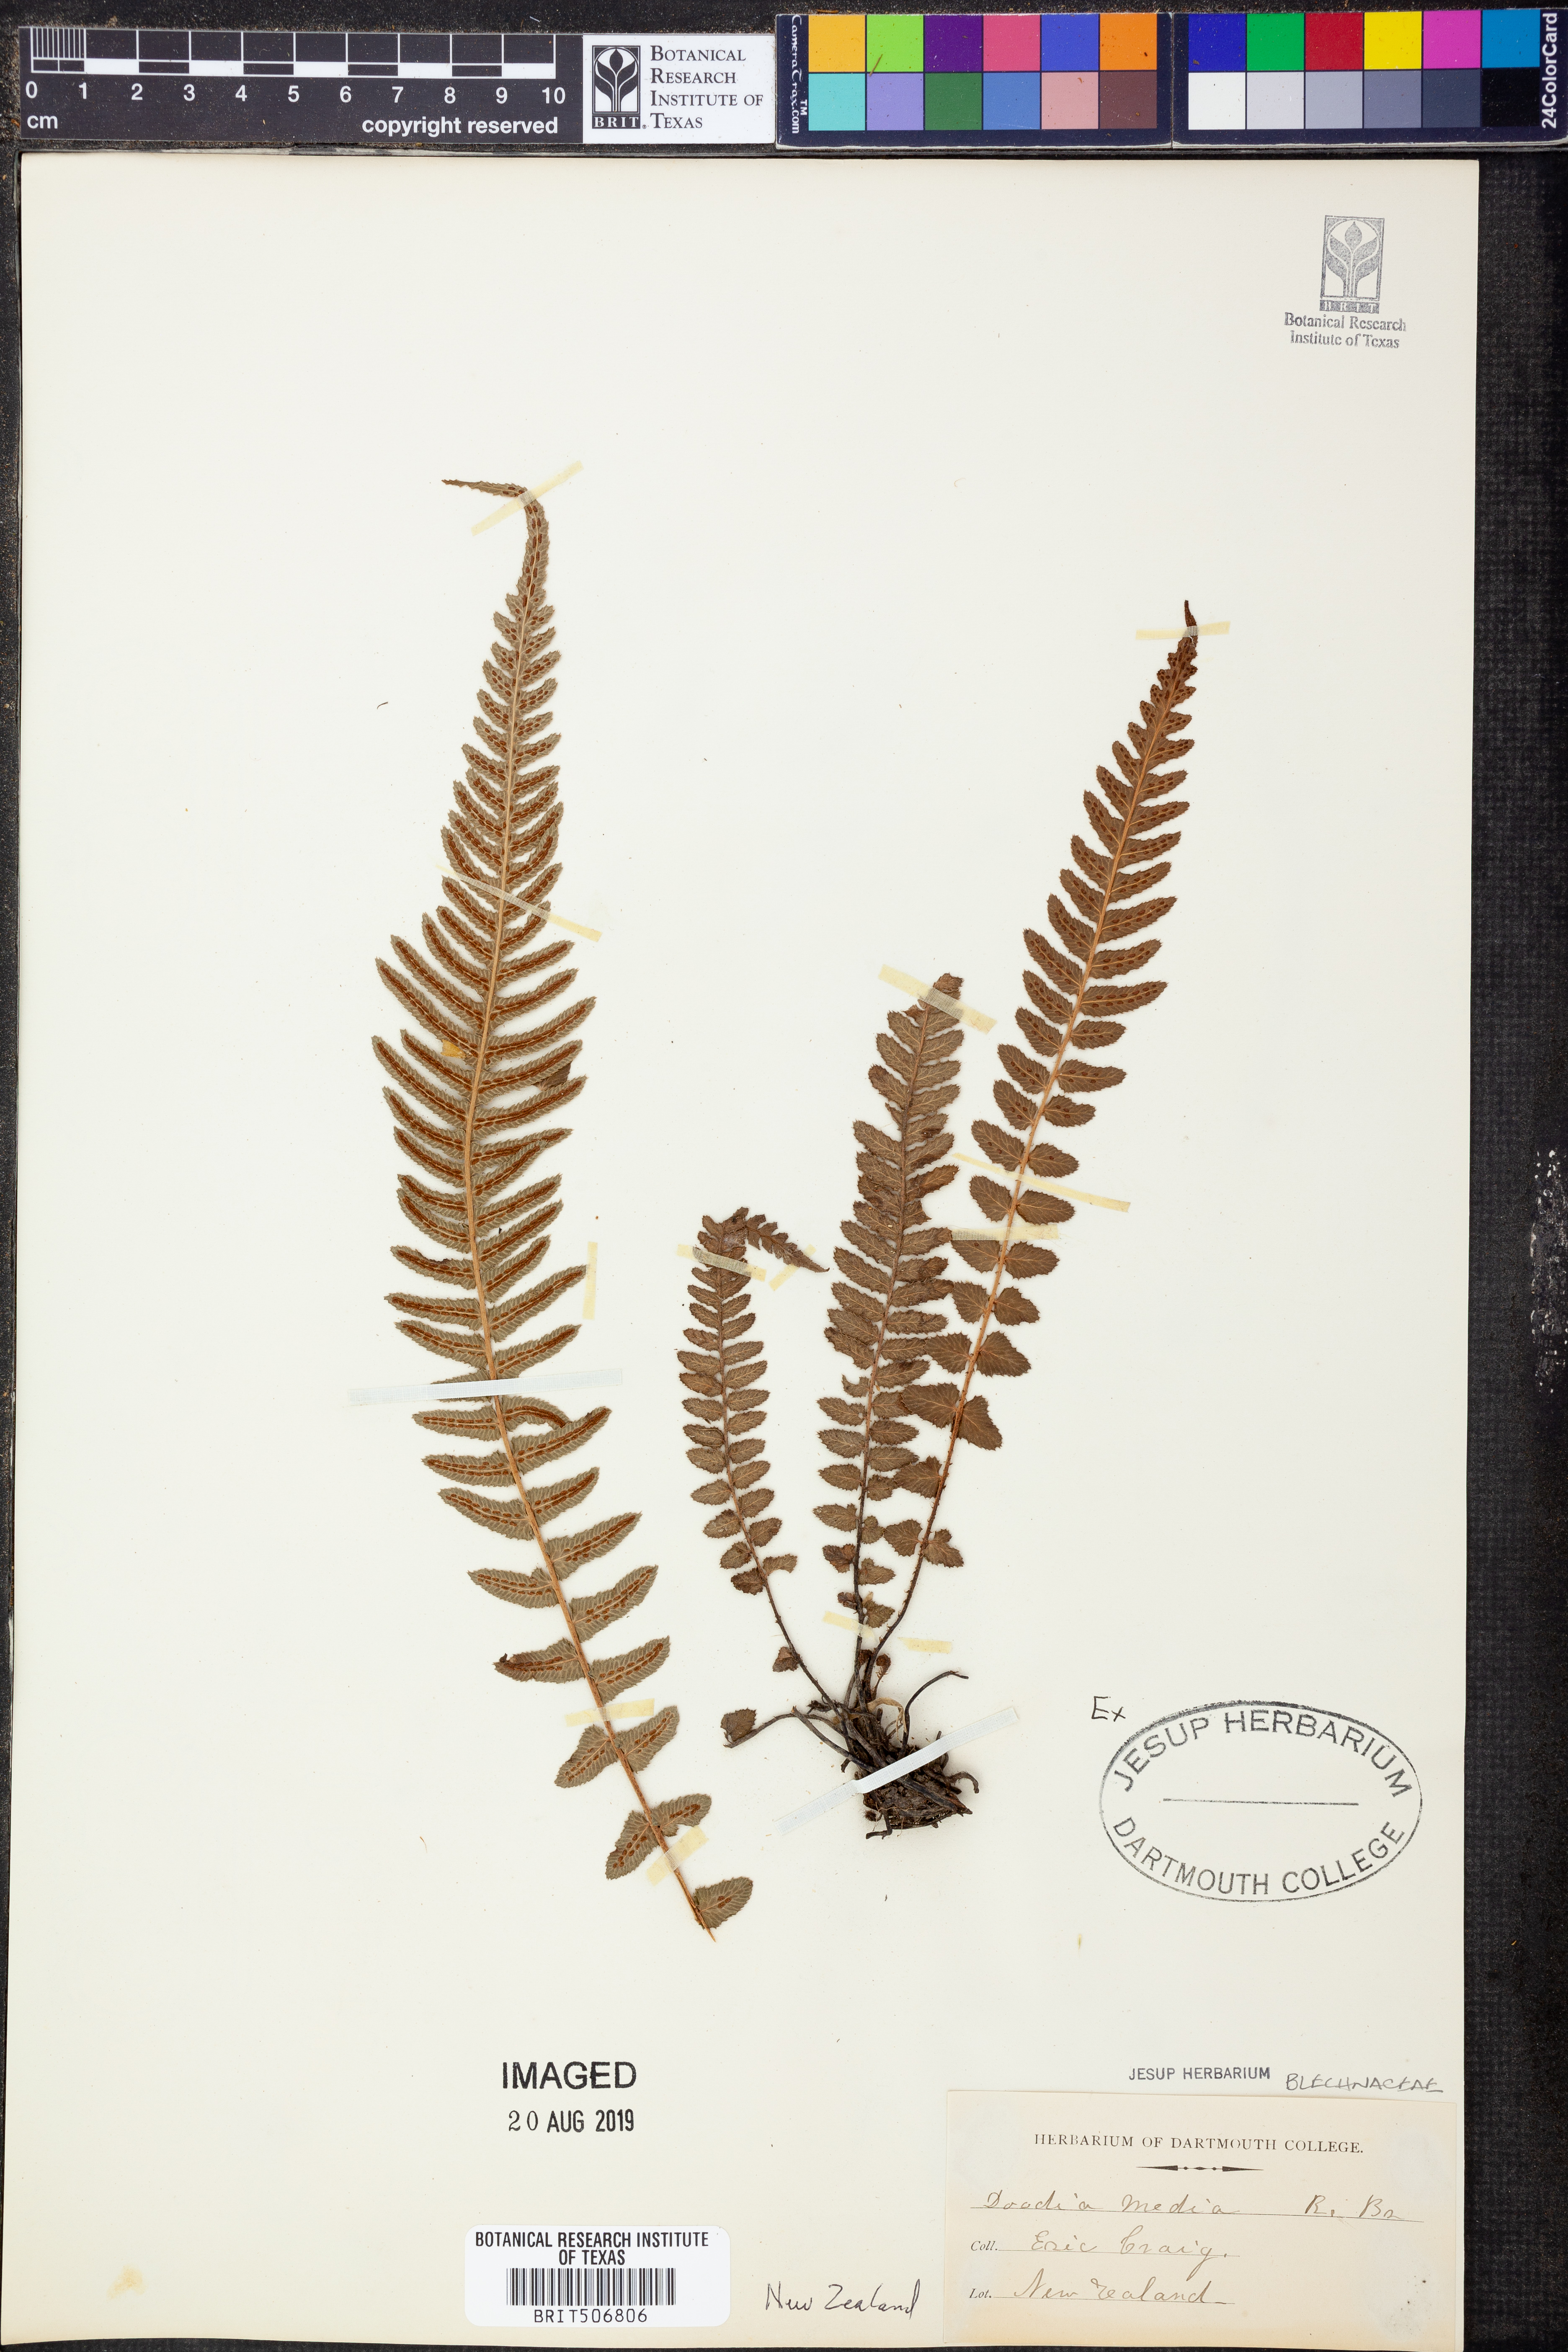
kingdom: Plantae
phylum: Tracheophyta
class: Polypodiopsida
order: Polypodiales
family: Blechnaceae
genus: Doodia
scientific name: Doodia media
